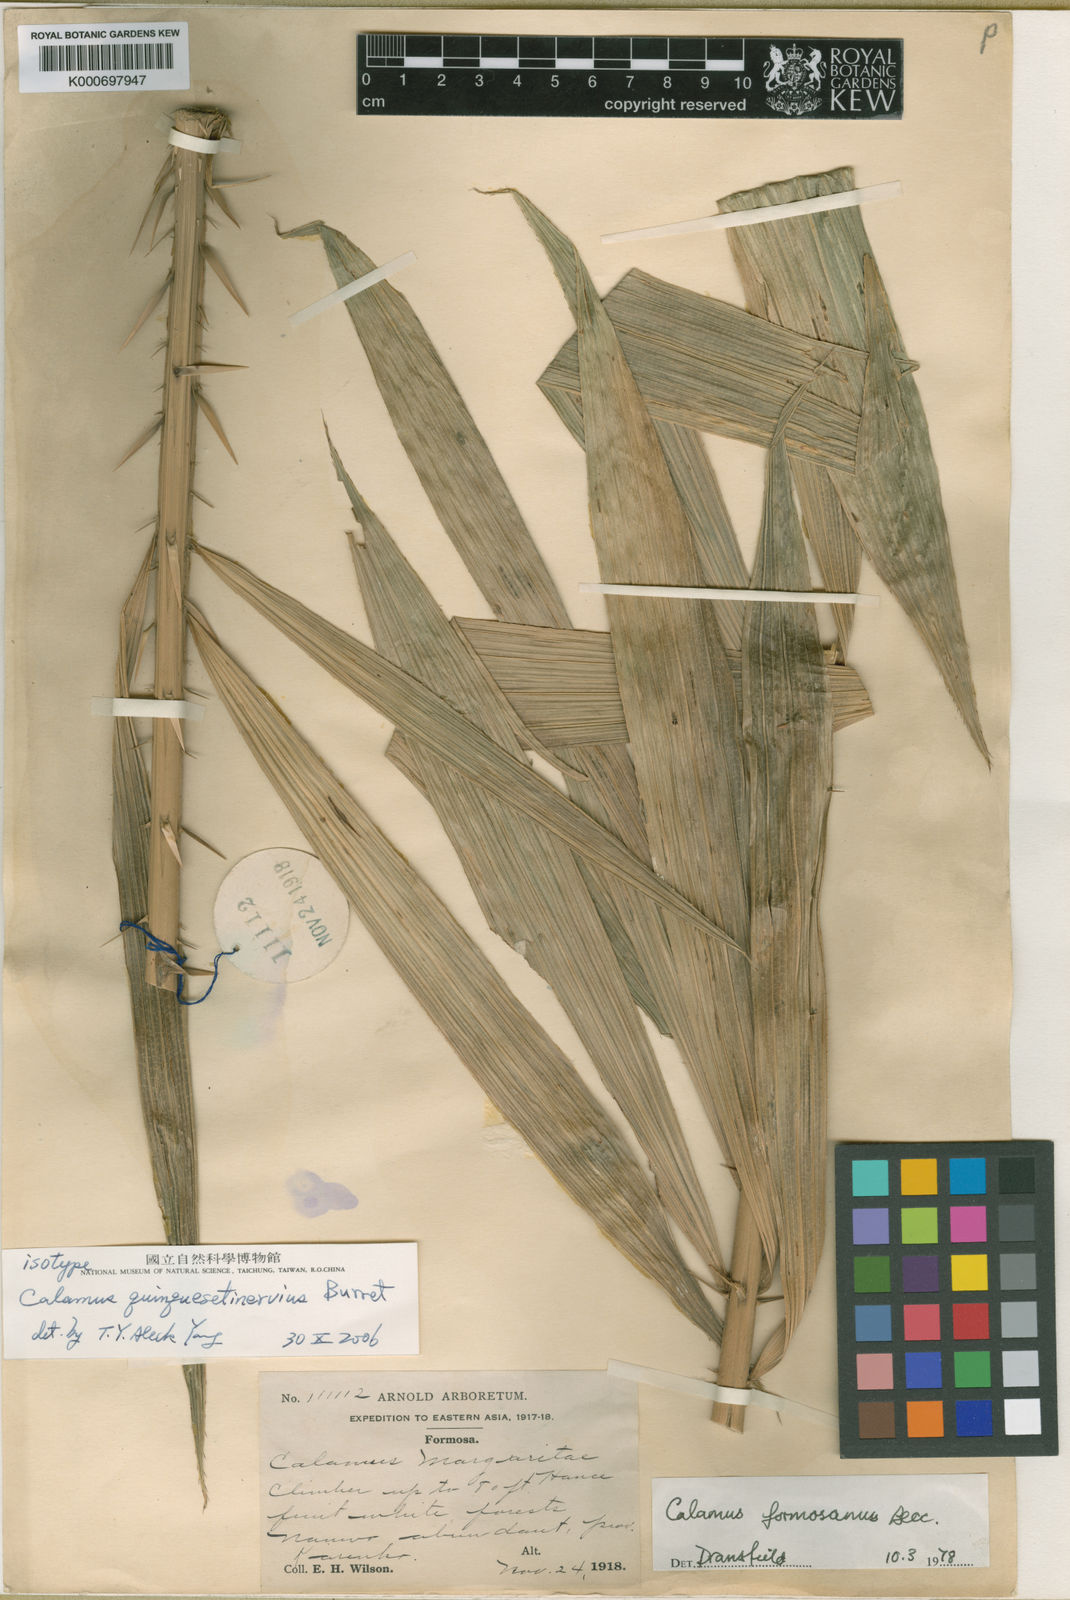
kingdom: Plantae
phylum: Tracheophyta
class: Liliopsida
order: Arecales
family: Arecaceae
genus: Calamus
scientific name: Calamus formosanus
